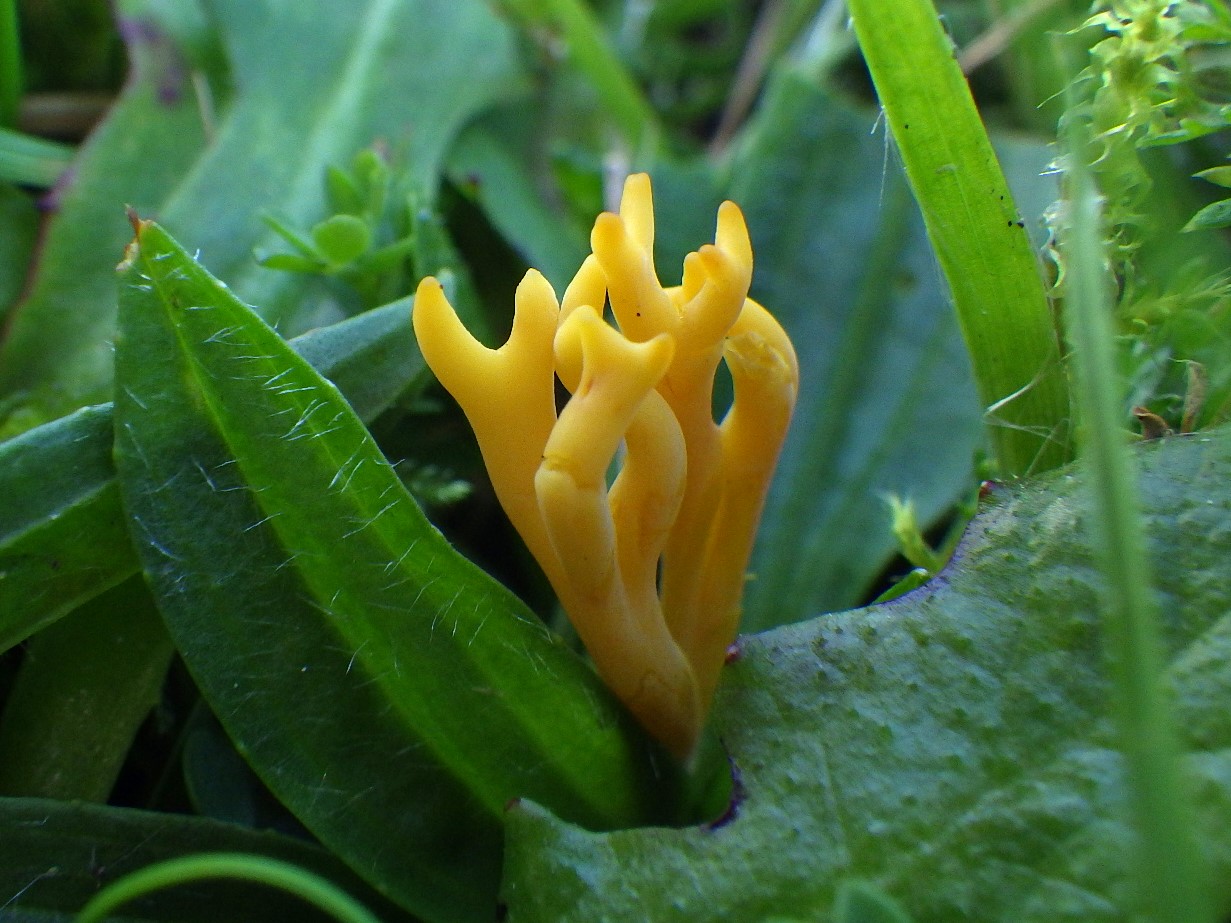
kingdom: Fungi
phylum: Basidiomycota
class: Agaricomycetes
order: Agaricales
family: Clavariaceae
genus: Clavulinopsis
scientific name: Clavulinopsis corniculata
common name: eng-køllesvamp
